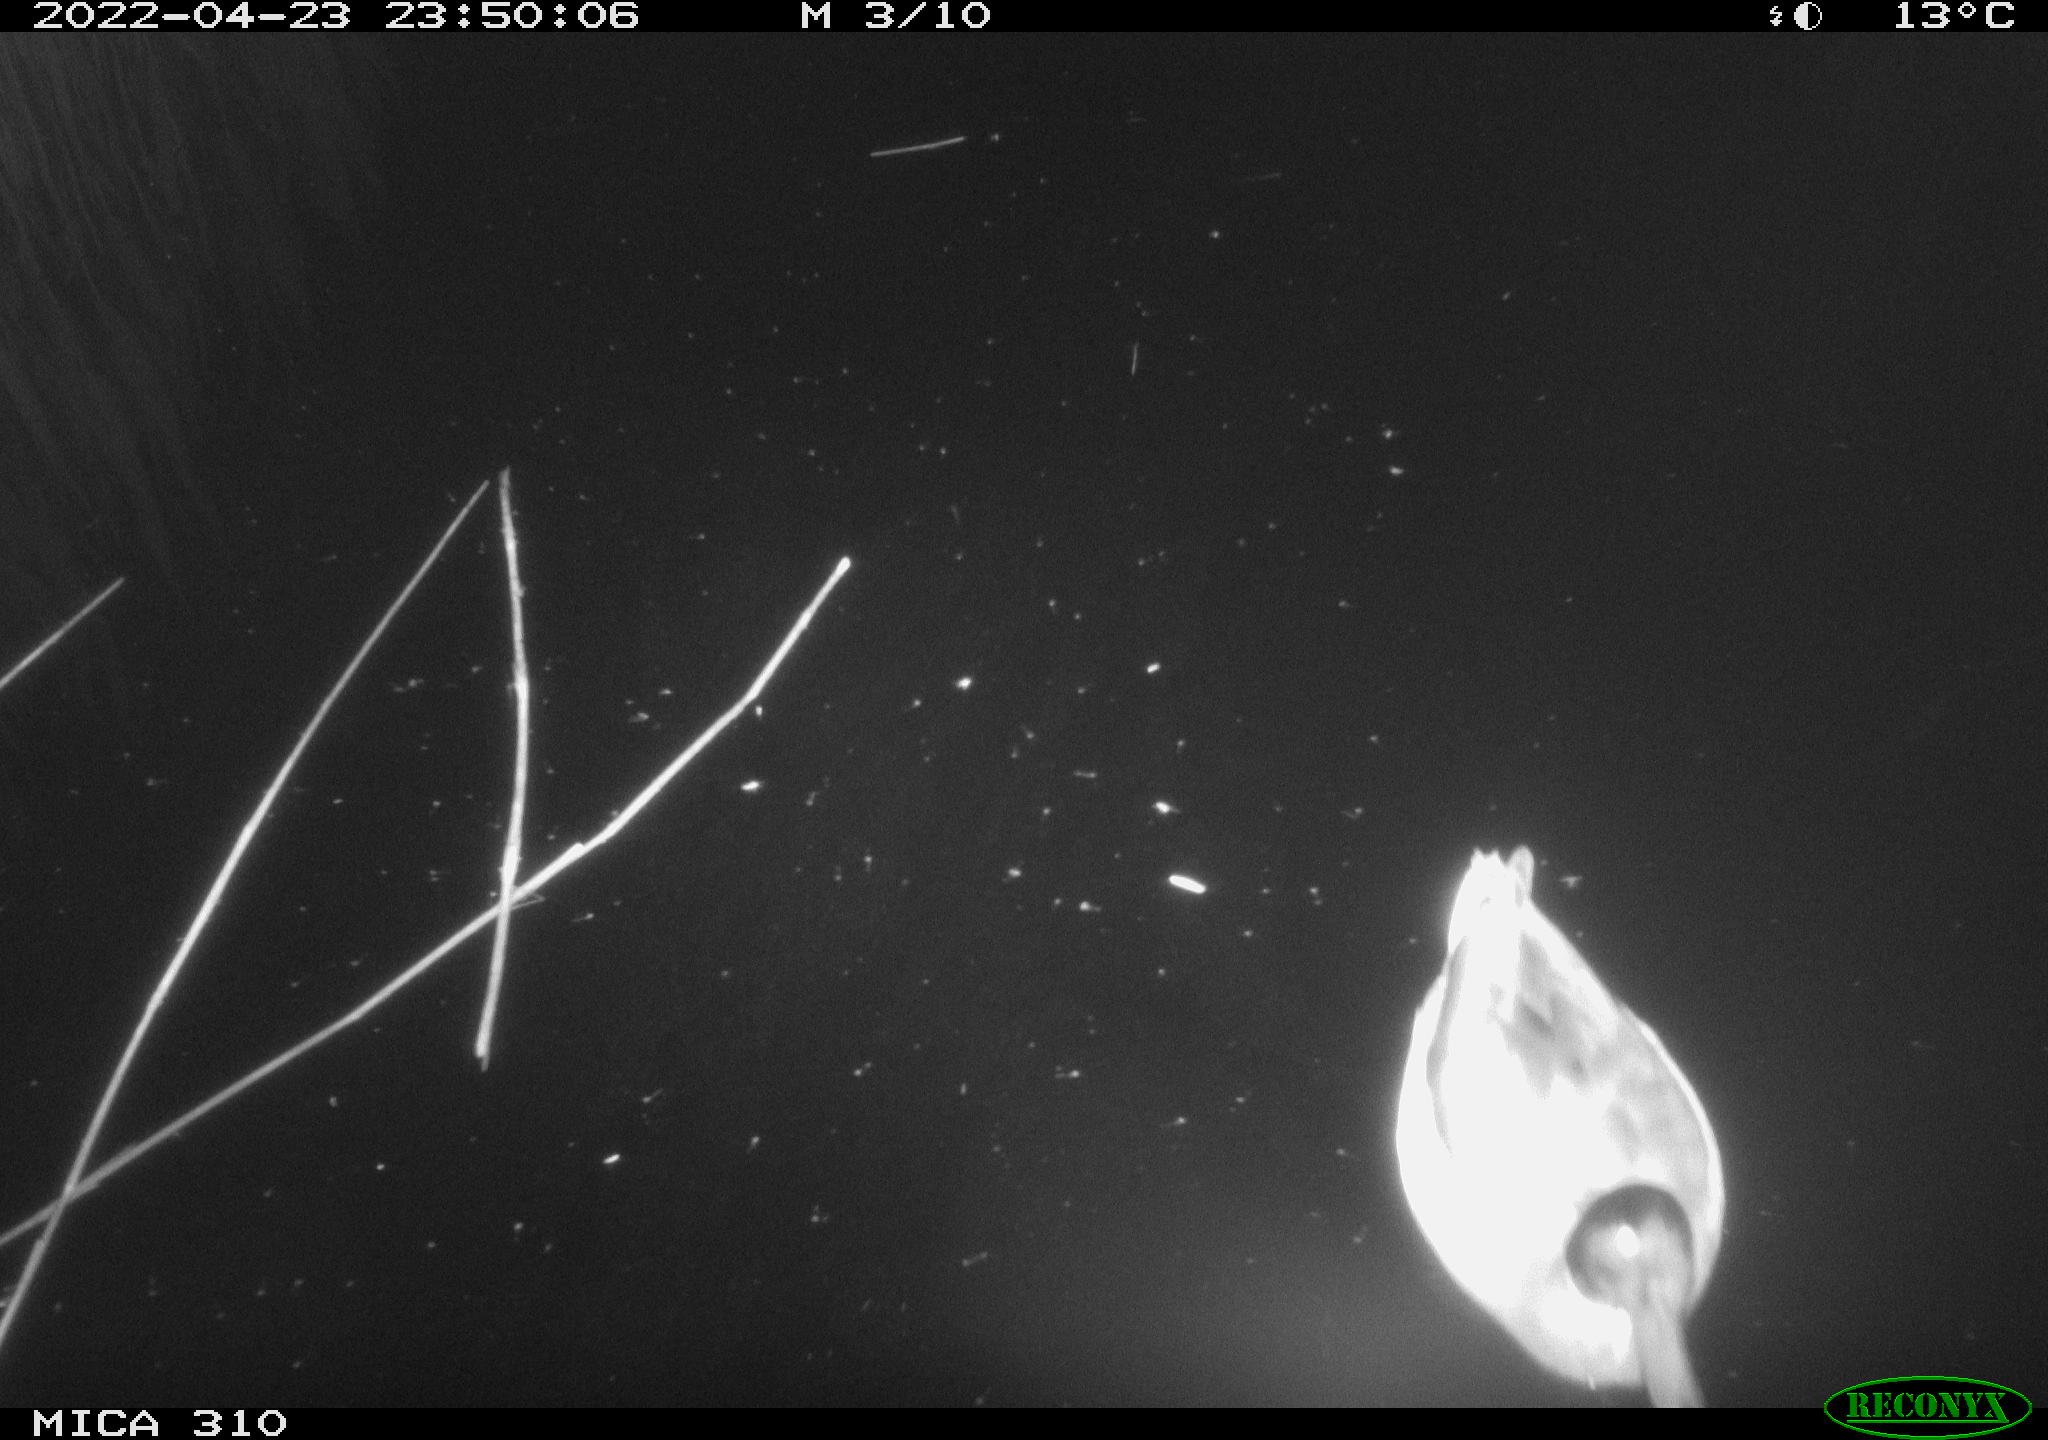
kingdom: Animalia
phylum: Chordata
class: Aves
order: Anseriformes
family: Anatidae
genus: Anas
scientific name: Anas platyrhynchos
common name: Mallard
